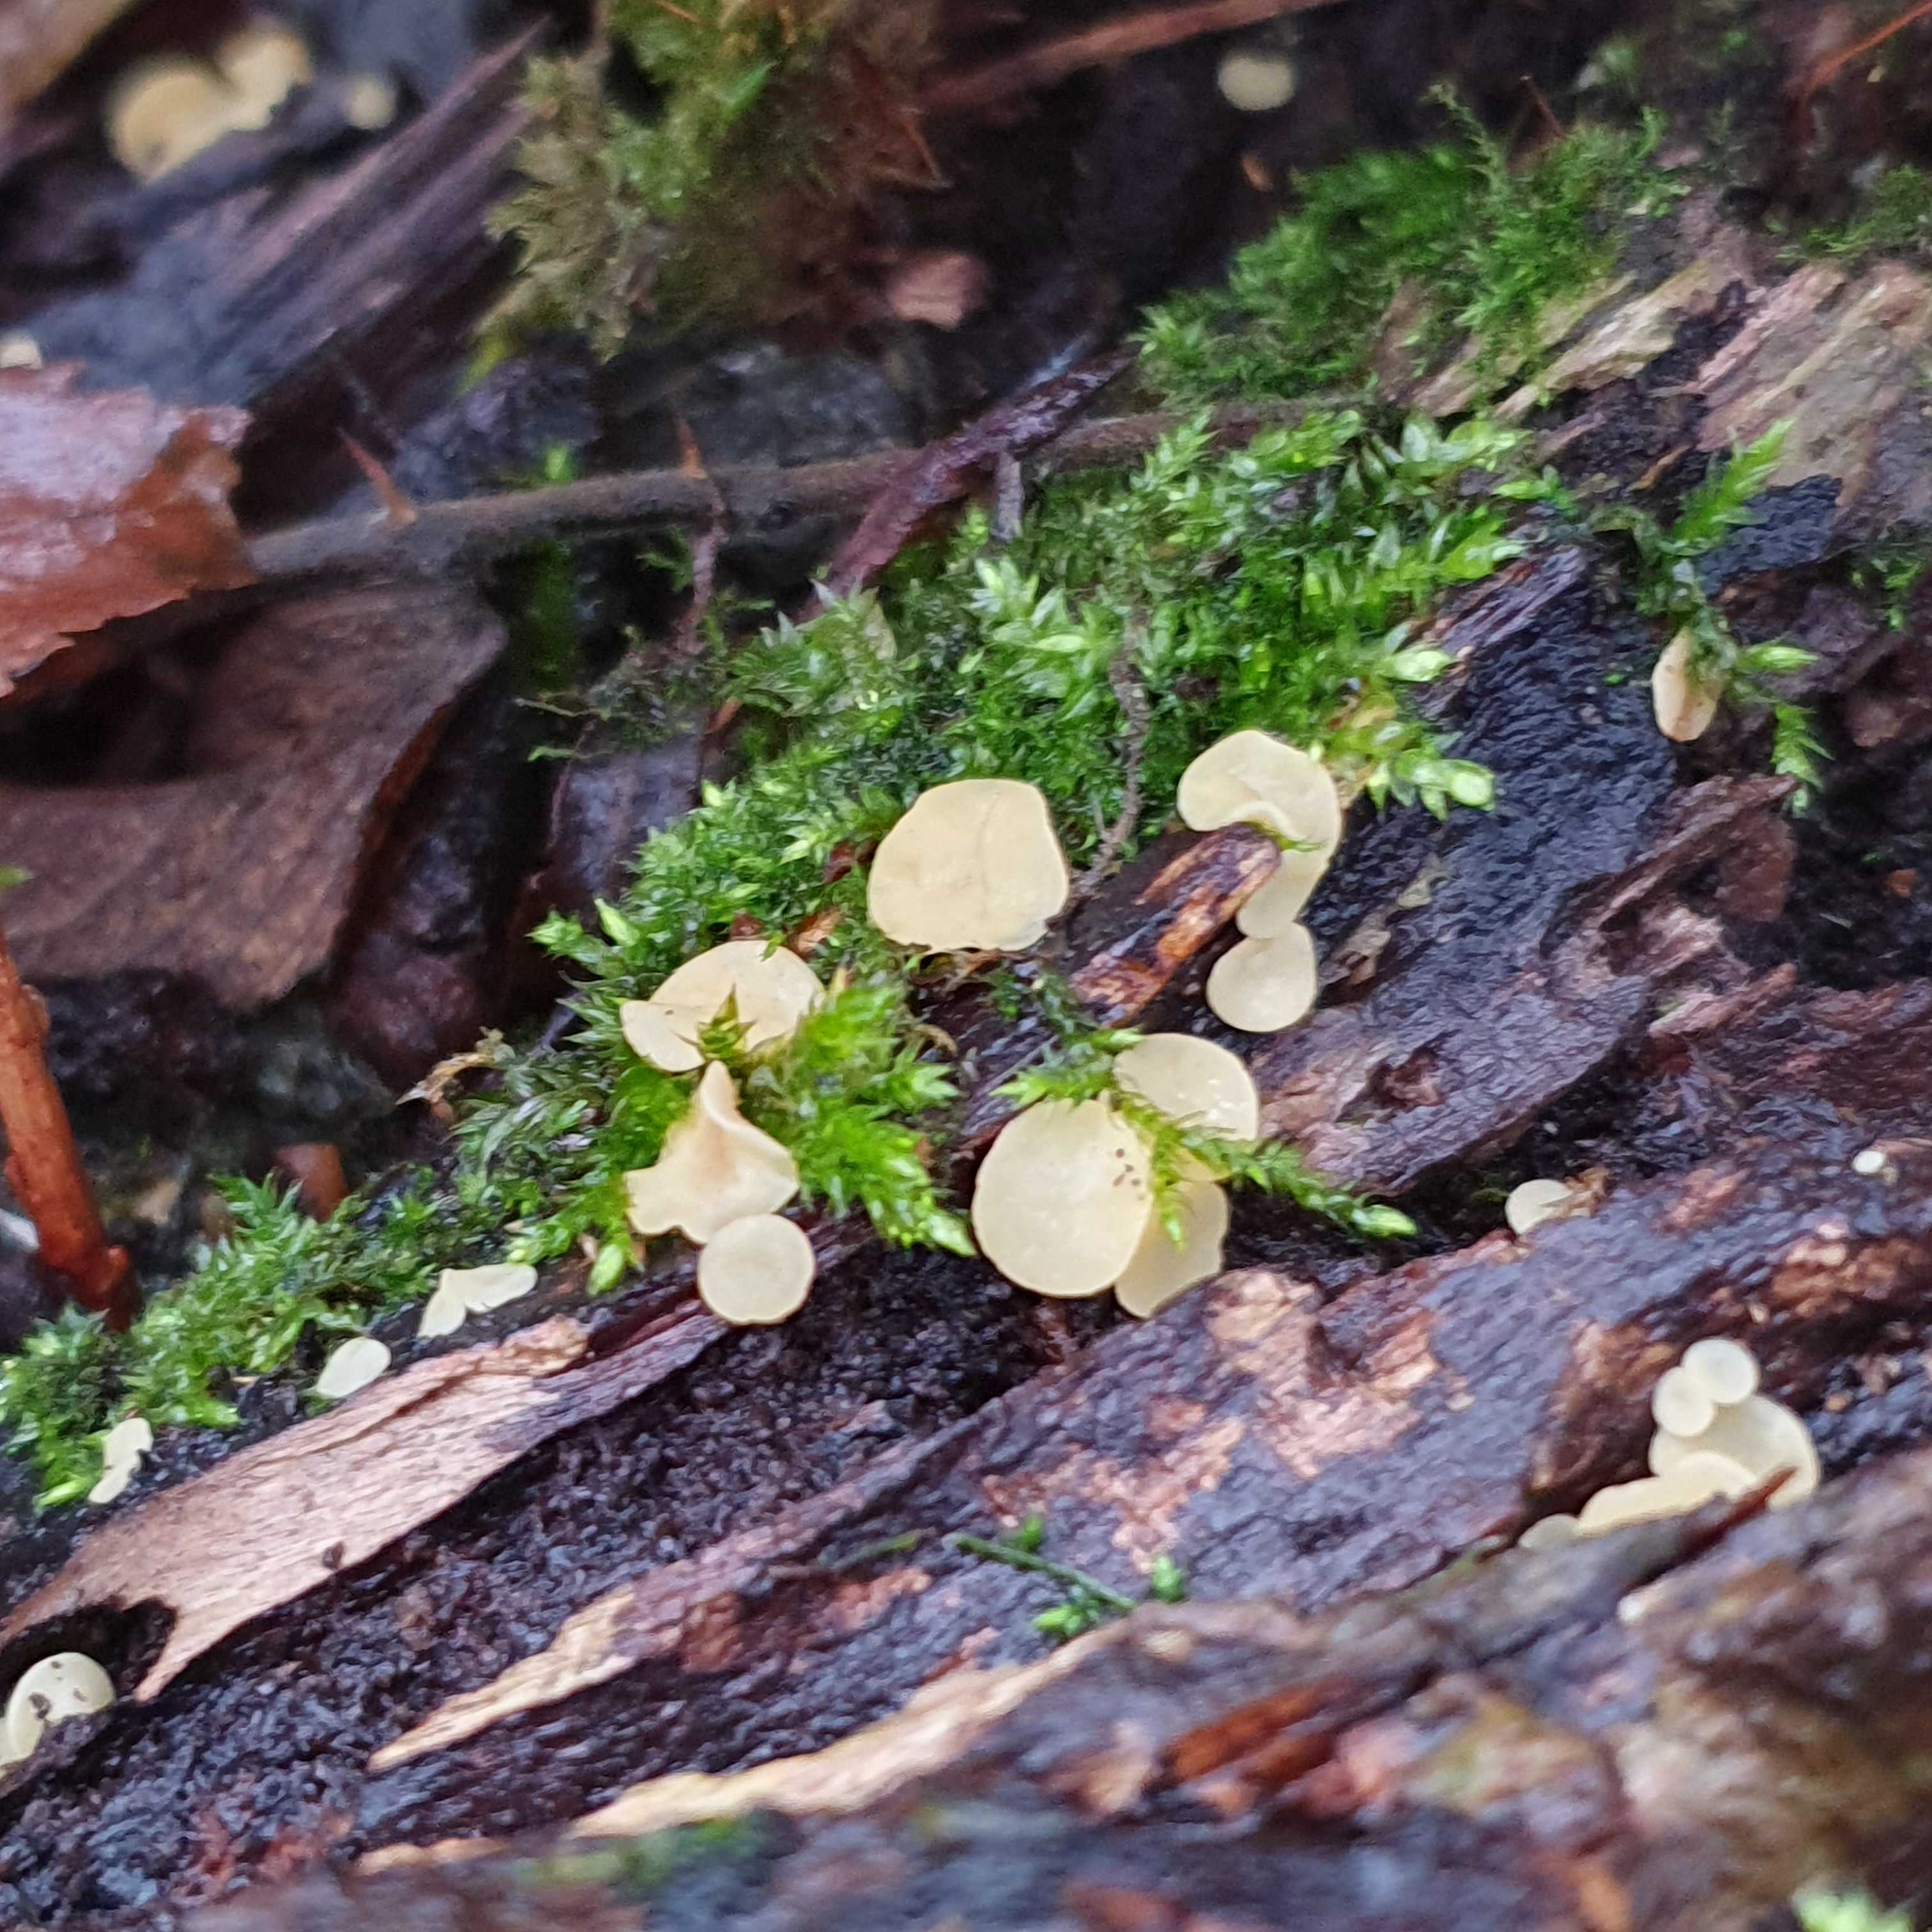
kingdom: Fungi
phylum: Ascomycota
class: Leotiomycetes
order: Helotiales
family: Helotiaceae
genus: Hymenoscyphus
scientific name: Hymenoscyphus
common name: stilkskive
